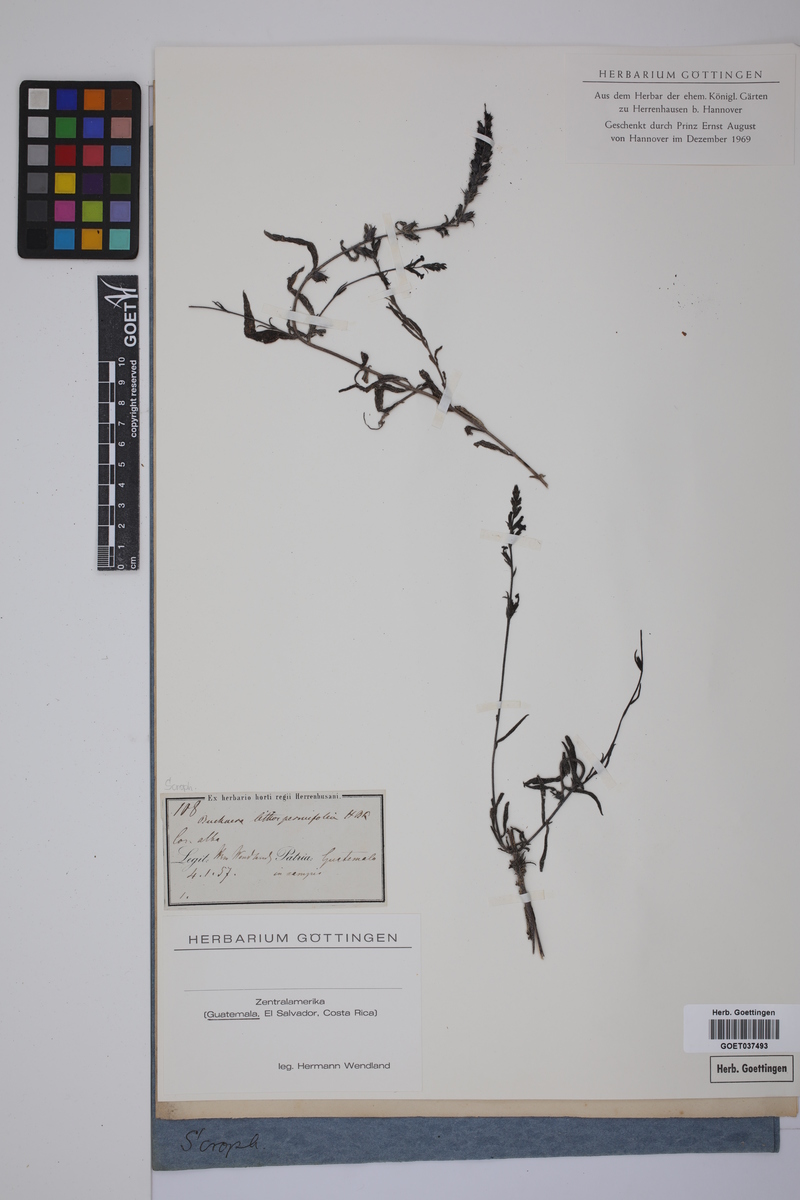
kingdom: Plantae
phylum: Tracheophyta
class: Magnoliopsida
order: Lamiales
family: Orobanchaceae
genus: Buchnera
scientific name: Buchnera ternifolia
